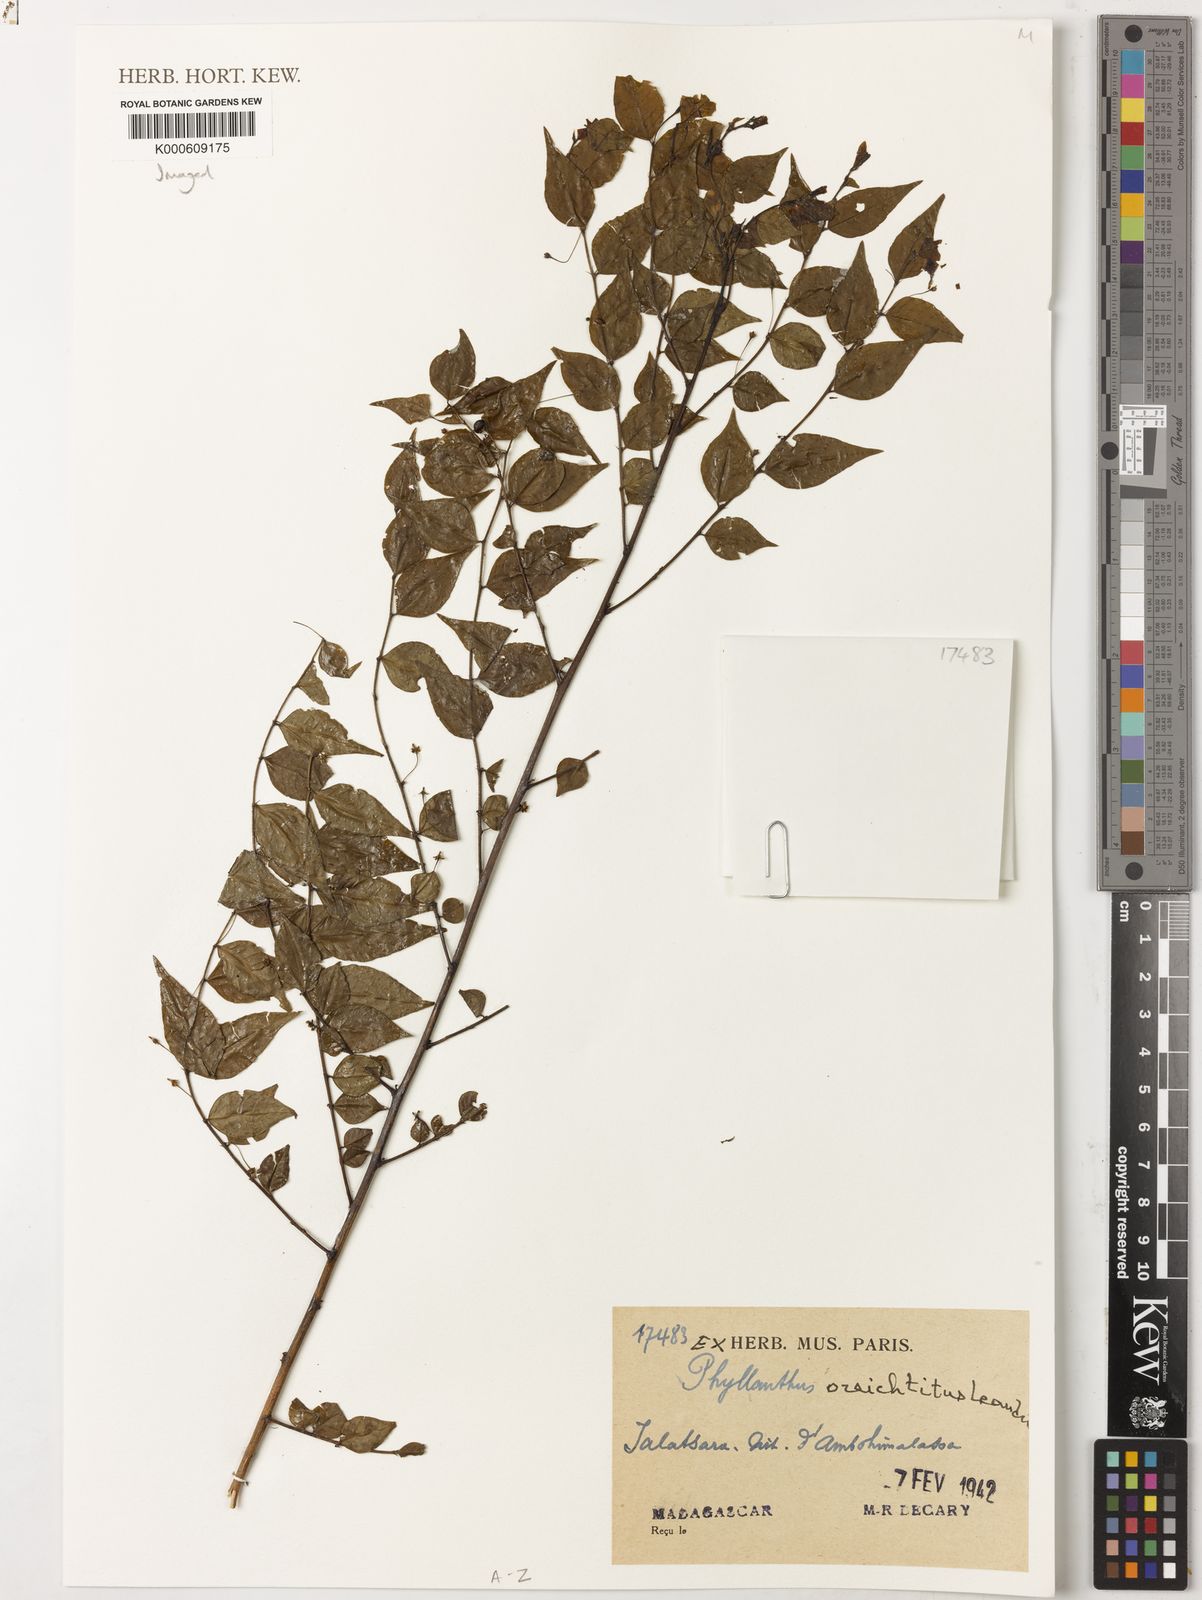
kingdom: Plantae
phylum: Tracheophyta
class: Magnoliopsida
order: Malpighiales
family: Phyllanthaceae
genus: Phyllanthus
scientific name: Phyllanthus oreichtitus
